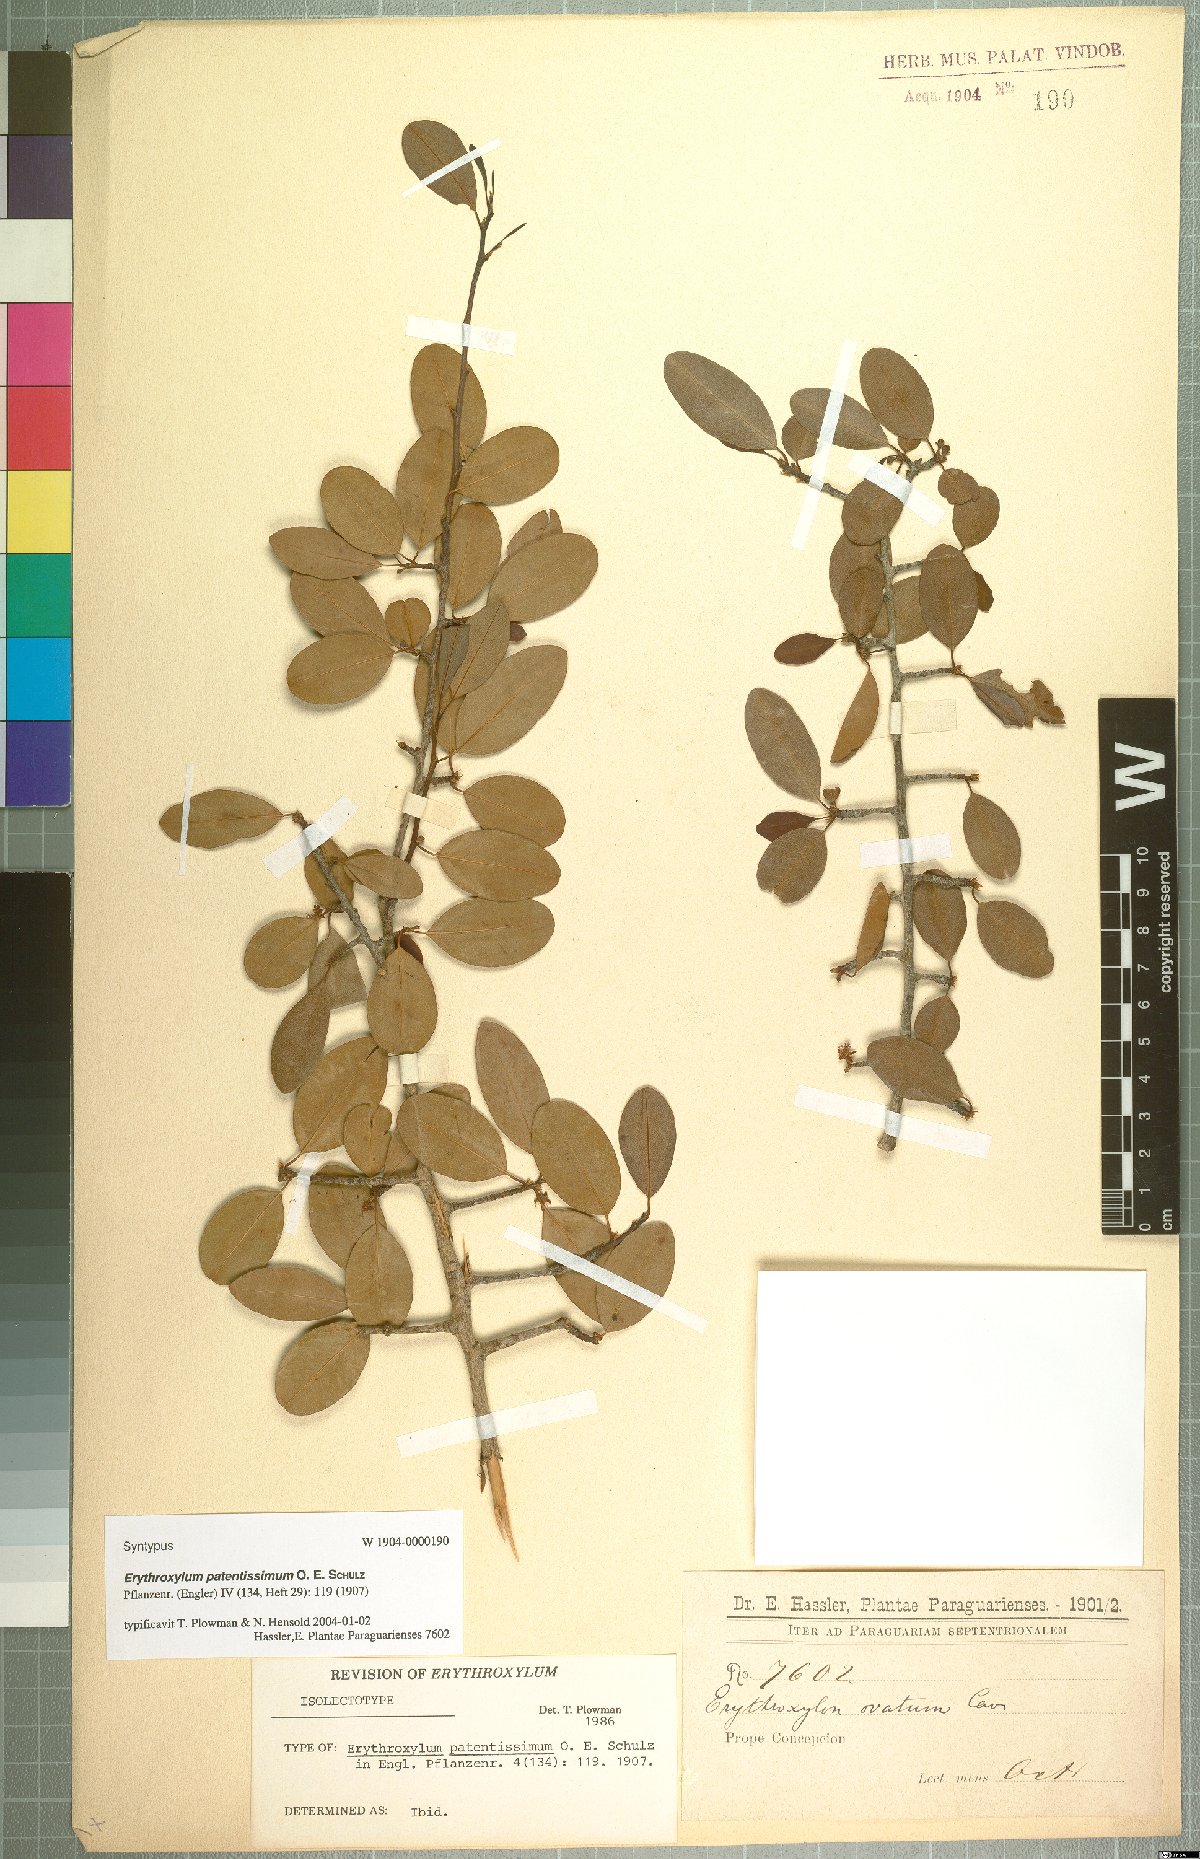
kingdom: Plantae
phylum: Tracheophyta
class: Magnoliopsida
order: Malpighiales
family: Erythroxylaceae
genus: Erythroxylum
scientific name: Erythroxylum patentissimum
